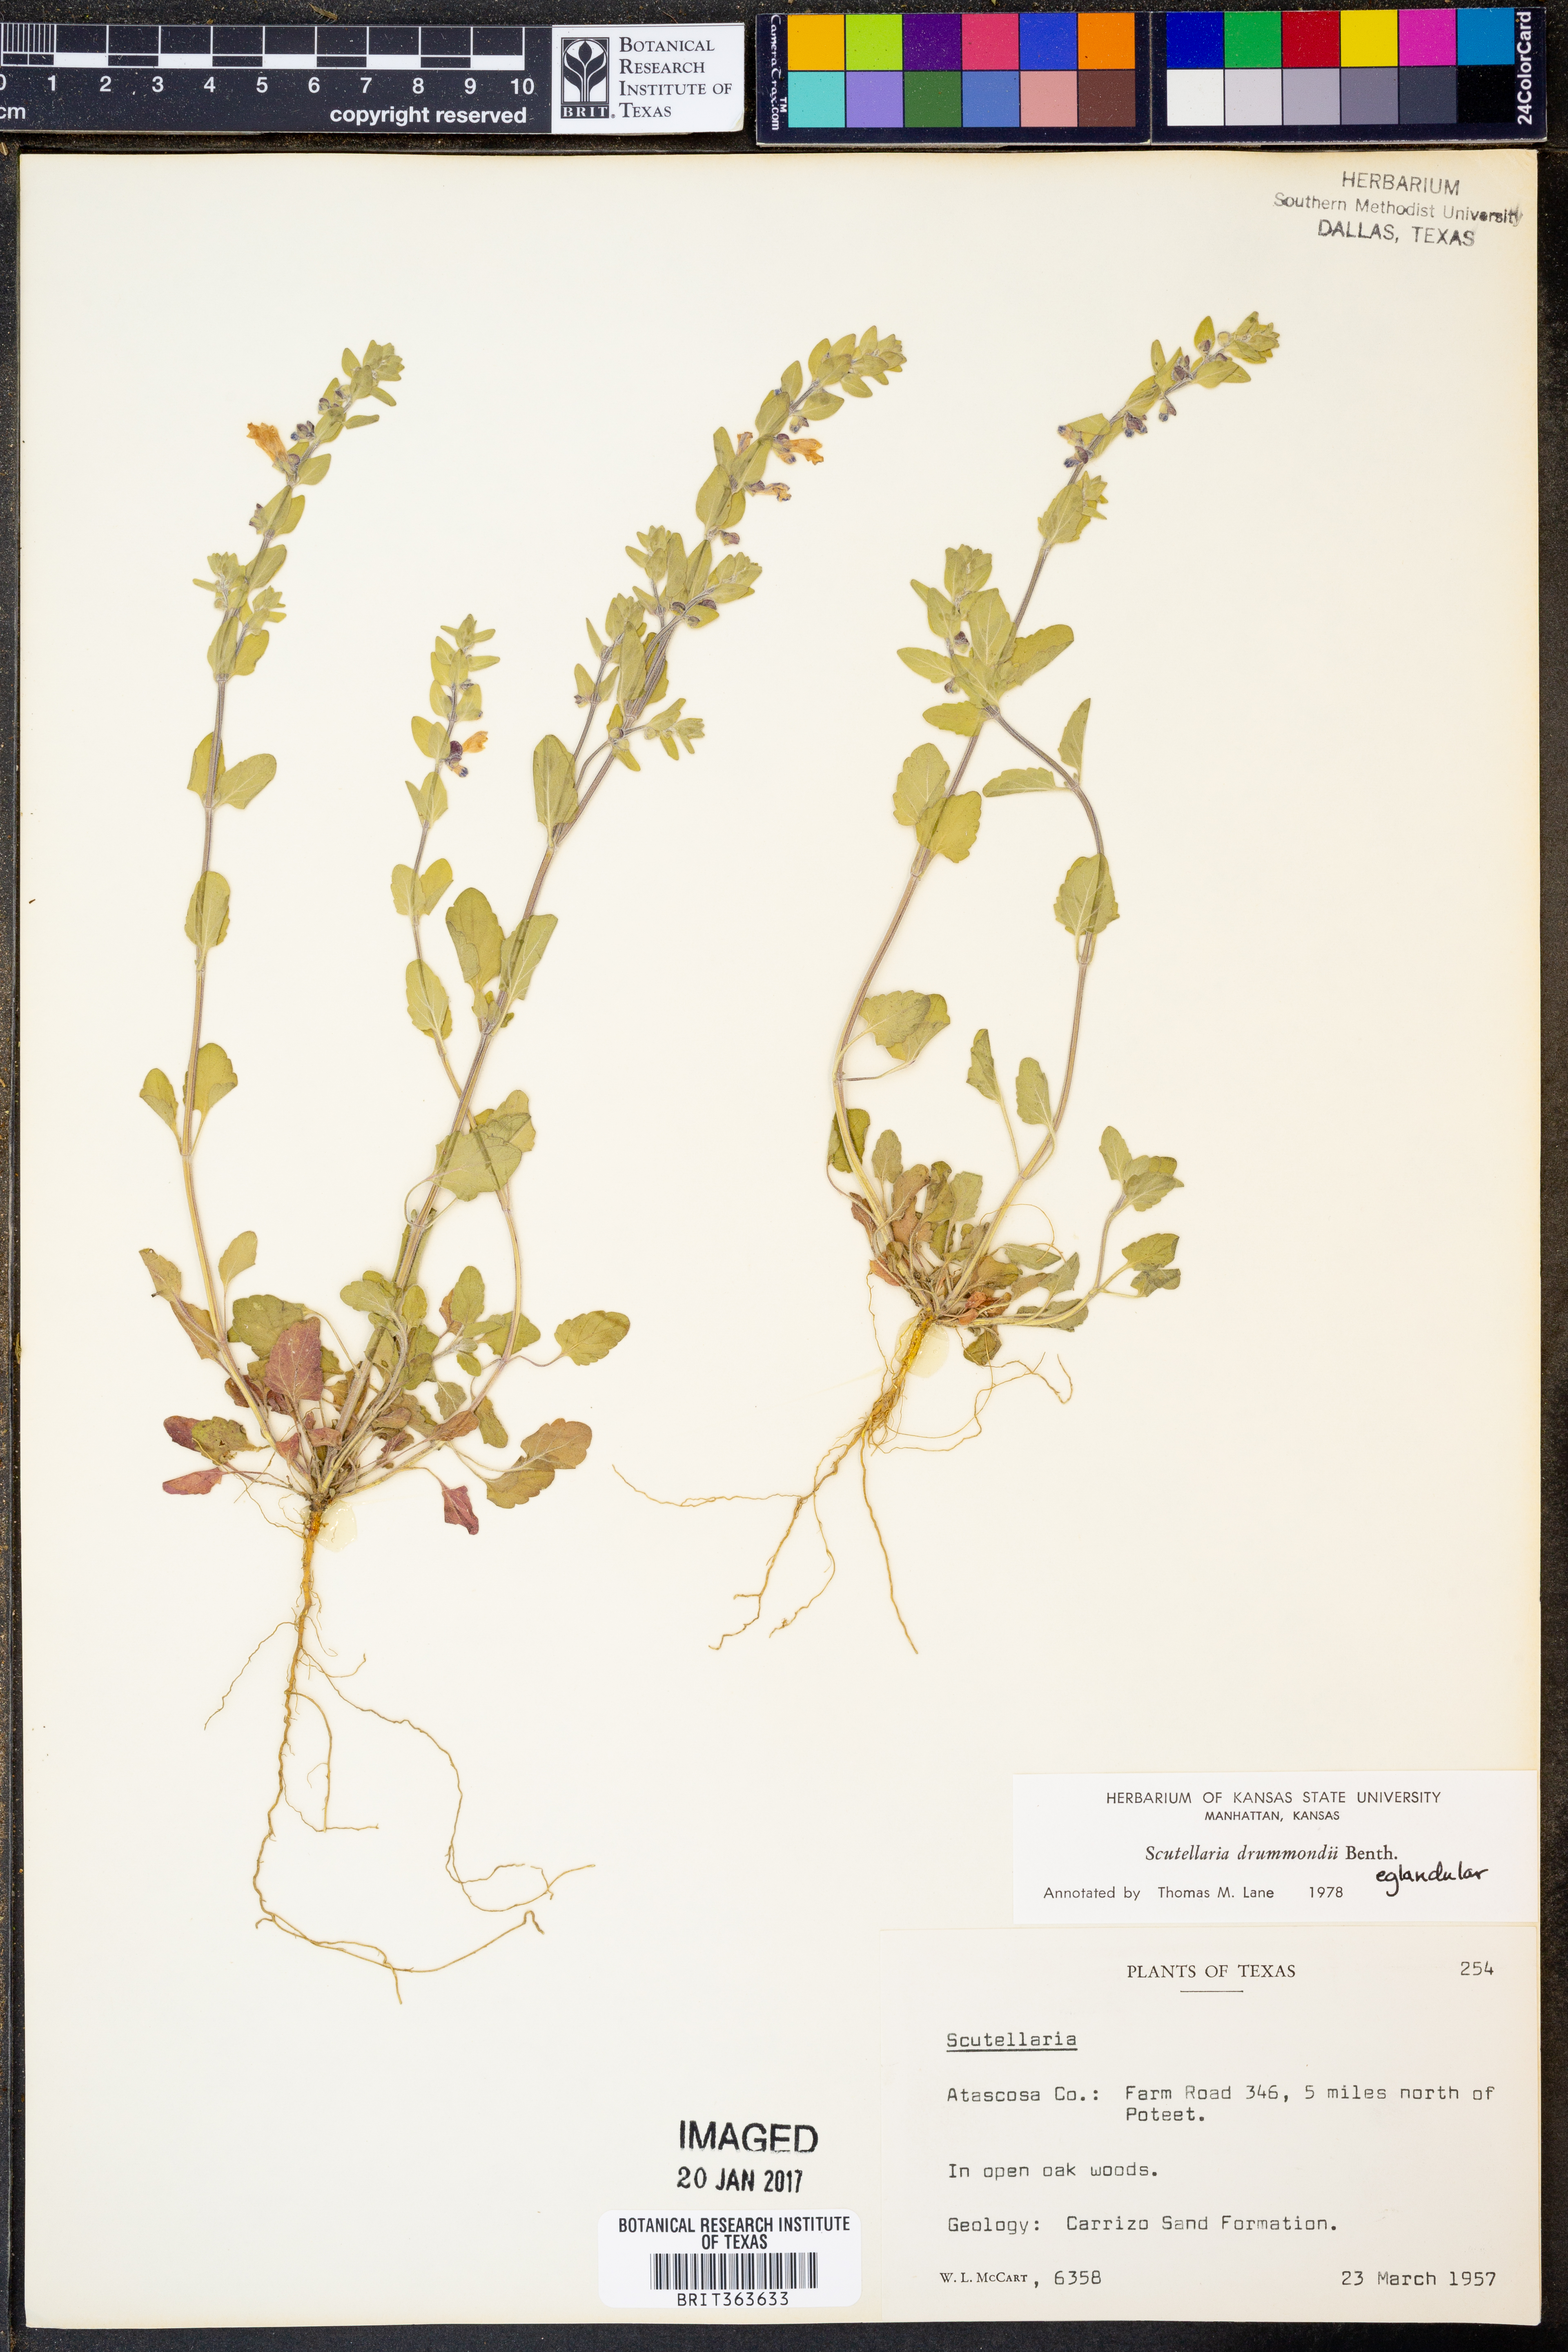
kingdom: Plantae
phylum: Tracheophyta
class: Magnoliopsida
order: Lamiales
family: Lamiaceae
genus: Scutellaria
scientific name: Scutellaria drummondii
